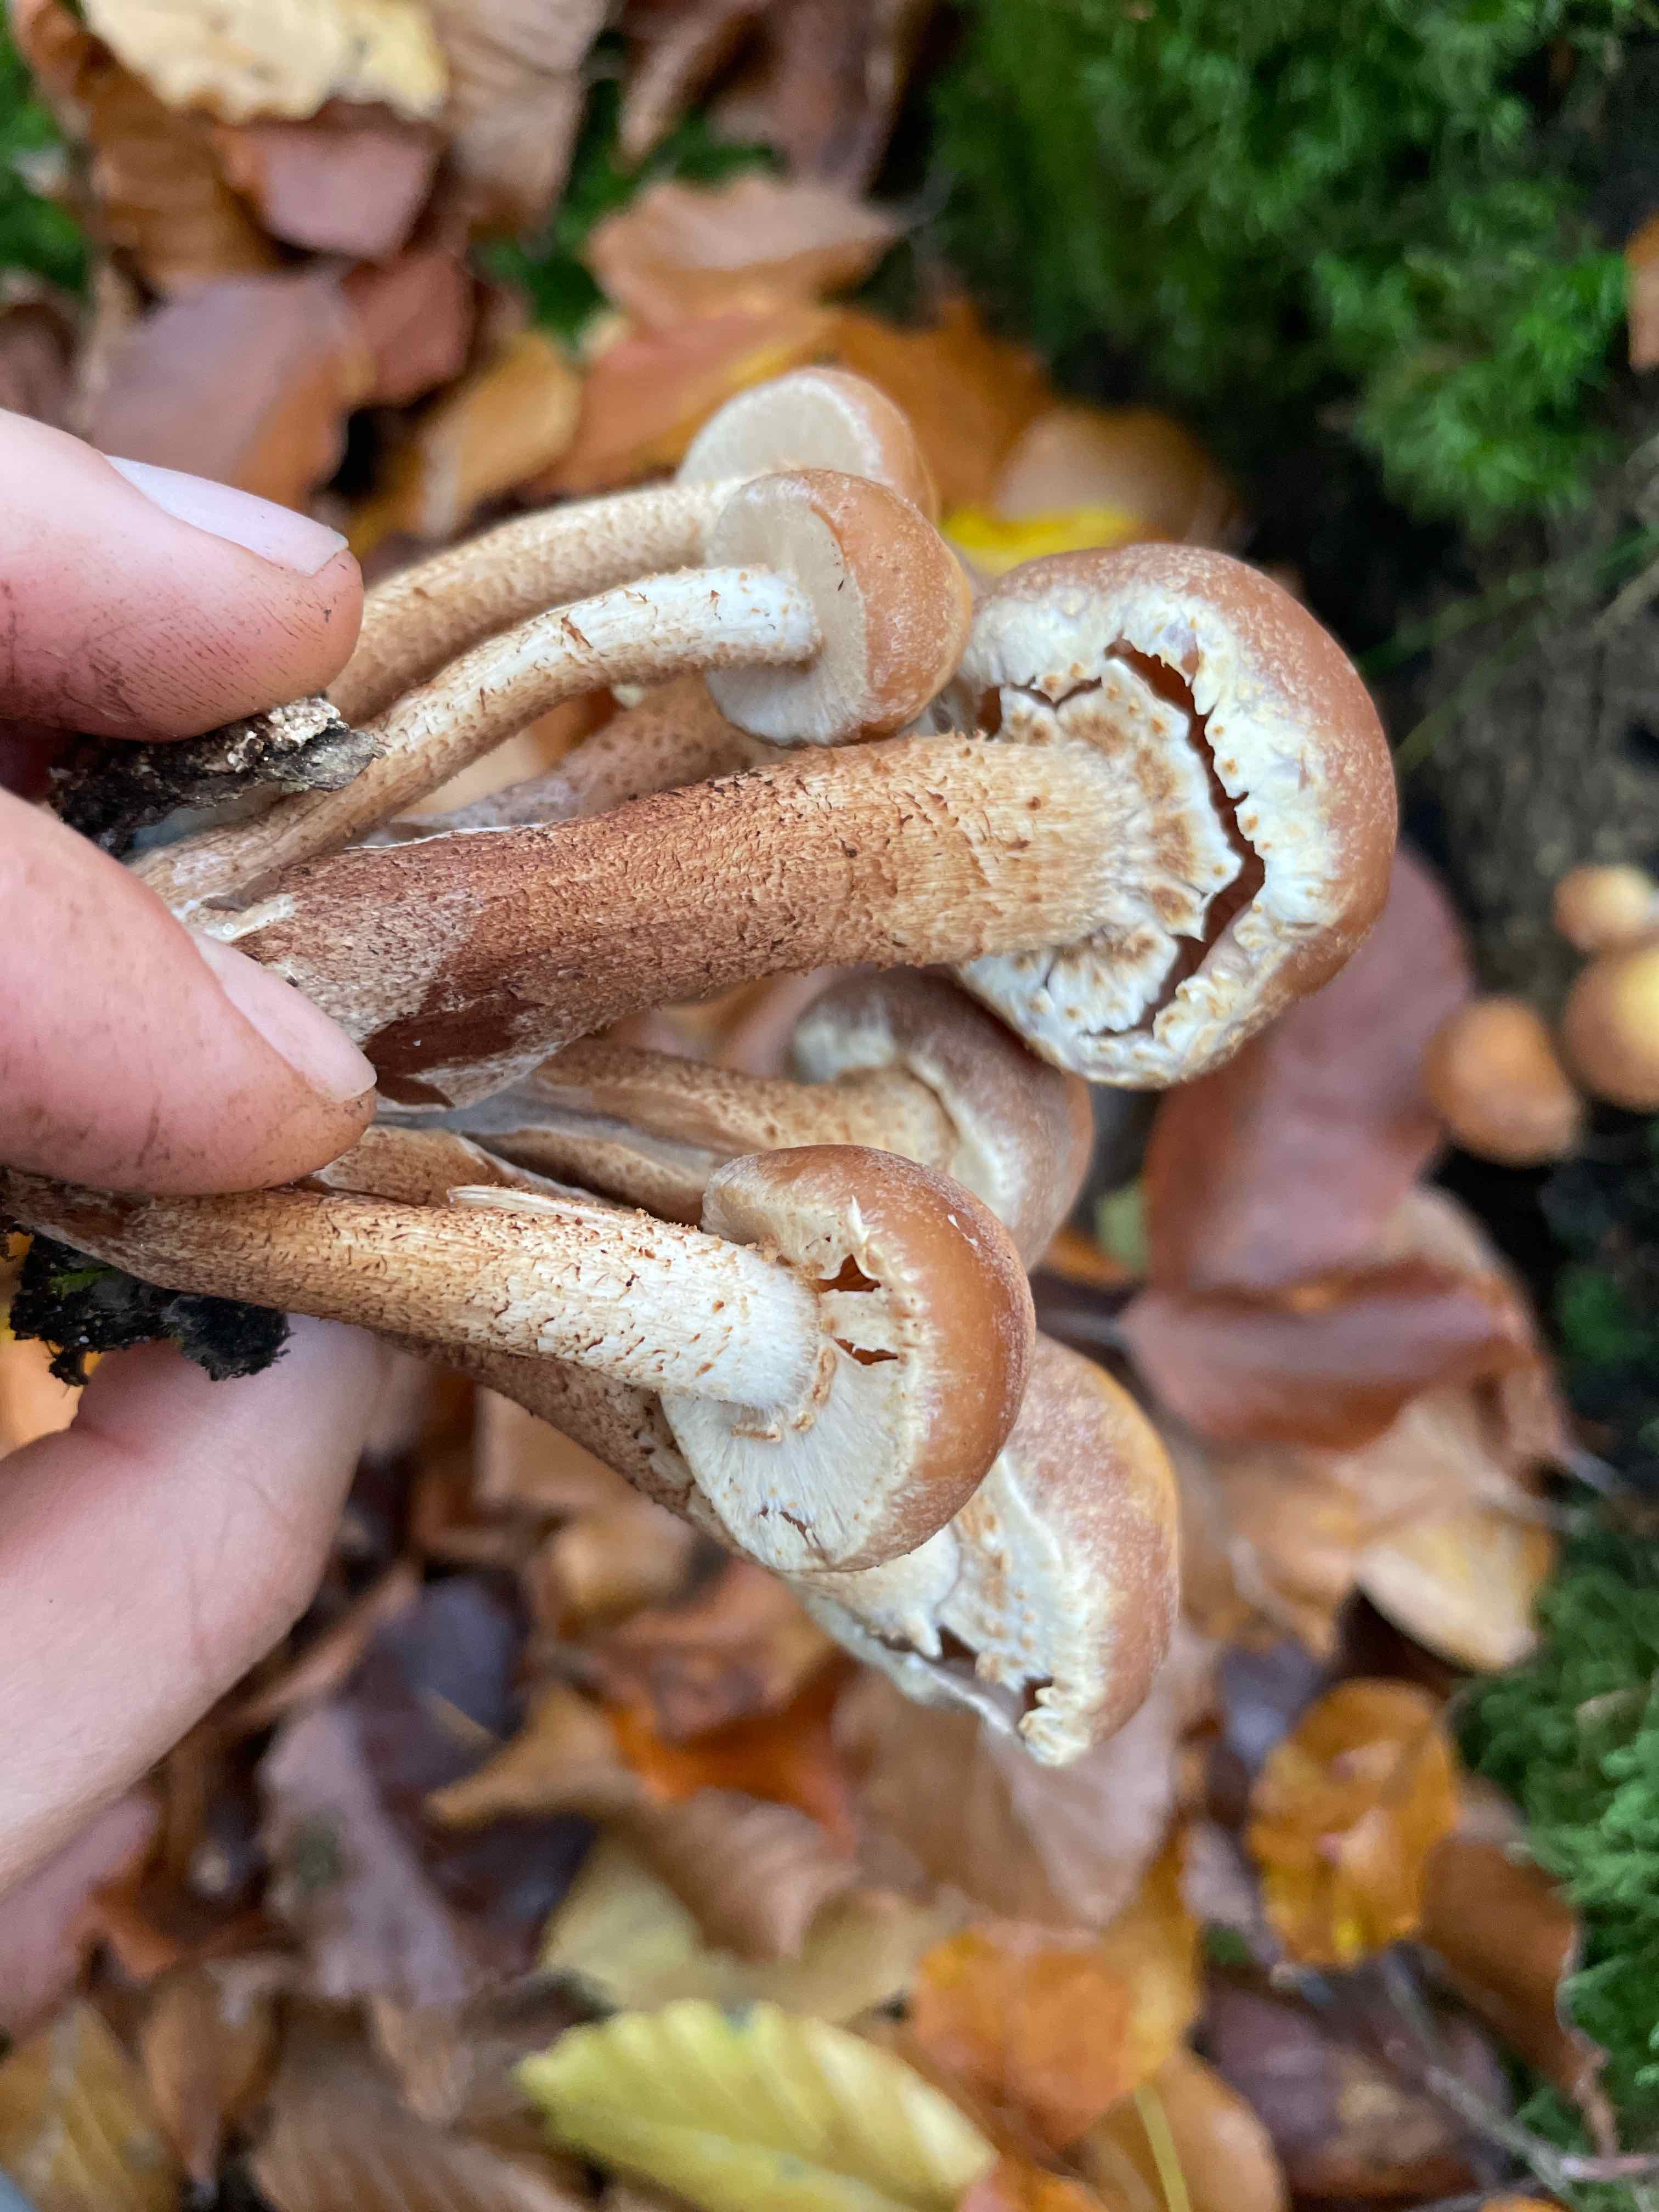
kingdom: Fungi
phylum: Basidiomycota
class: Agaricomycetes
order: Agaricales
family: Strophariaceae
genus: Kuehneromyces
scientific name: Kuehneromyces mutabilis
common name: foranderlig skælhat
